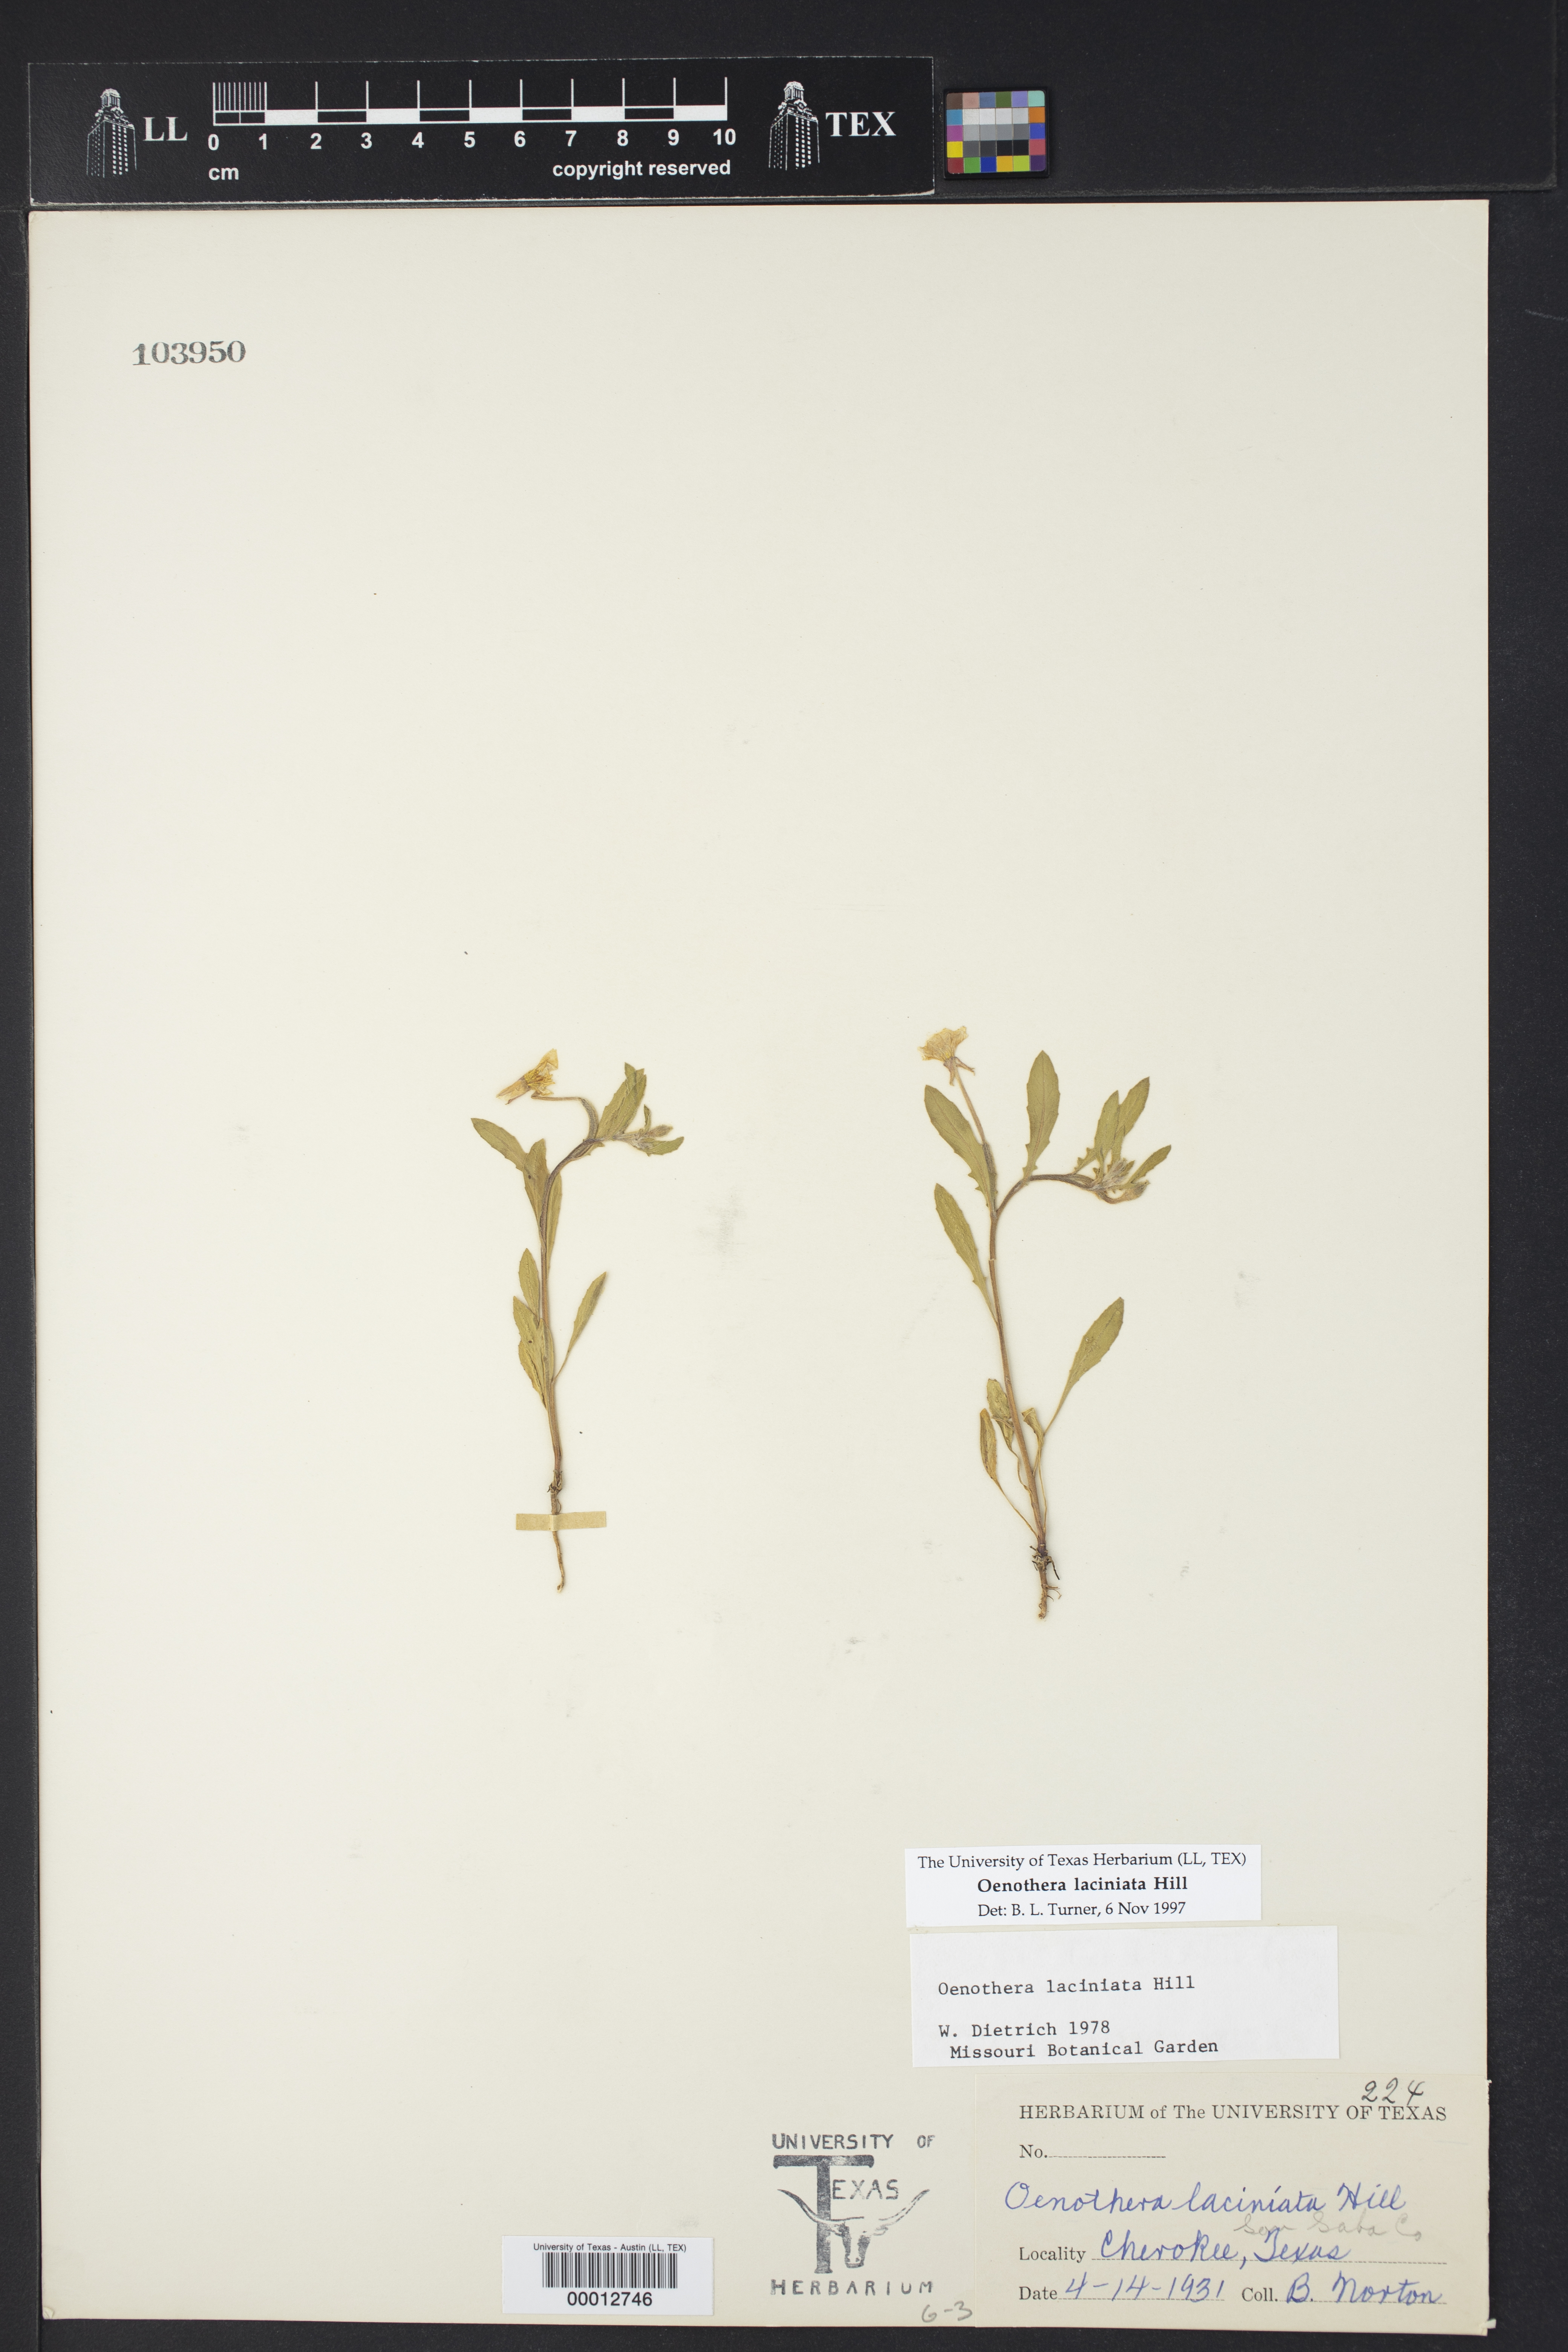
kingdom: Plantae
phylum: Tracheophyta
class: Magnoliopsida
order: Myrtales
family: Onagraceae
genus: Oenothera
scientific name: Oenothera laciniata
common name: Cut-leaved evening-primrose
